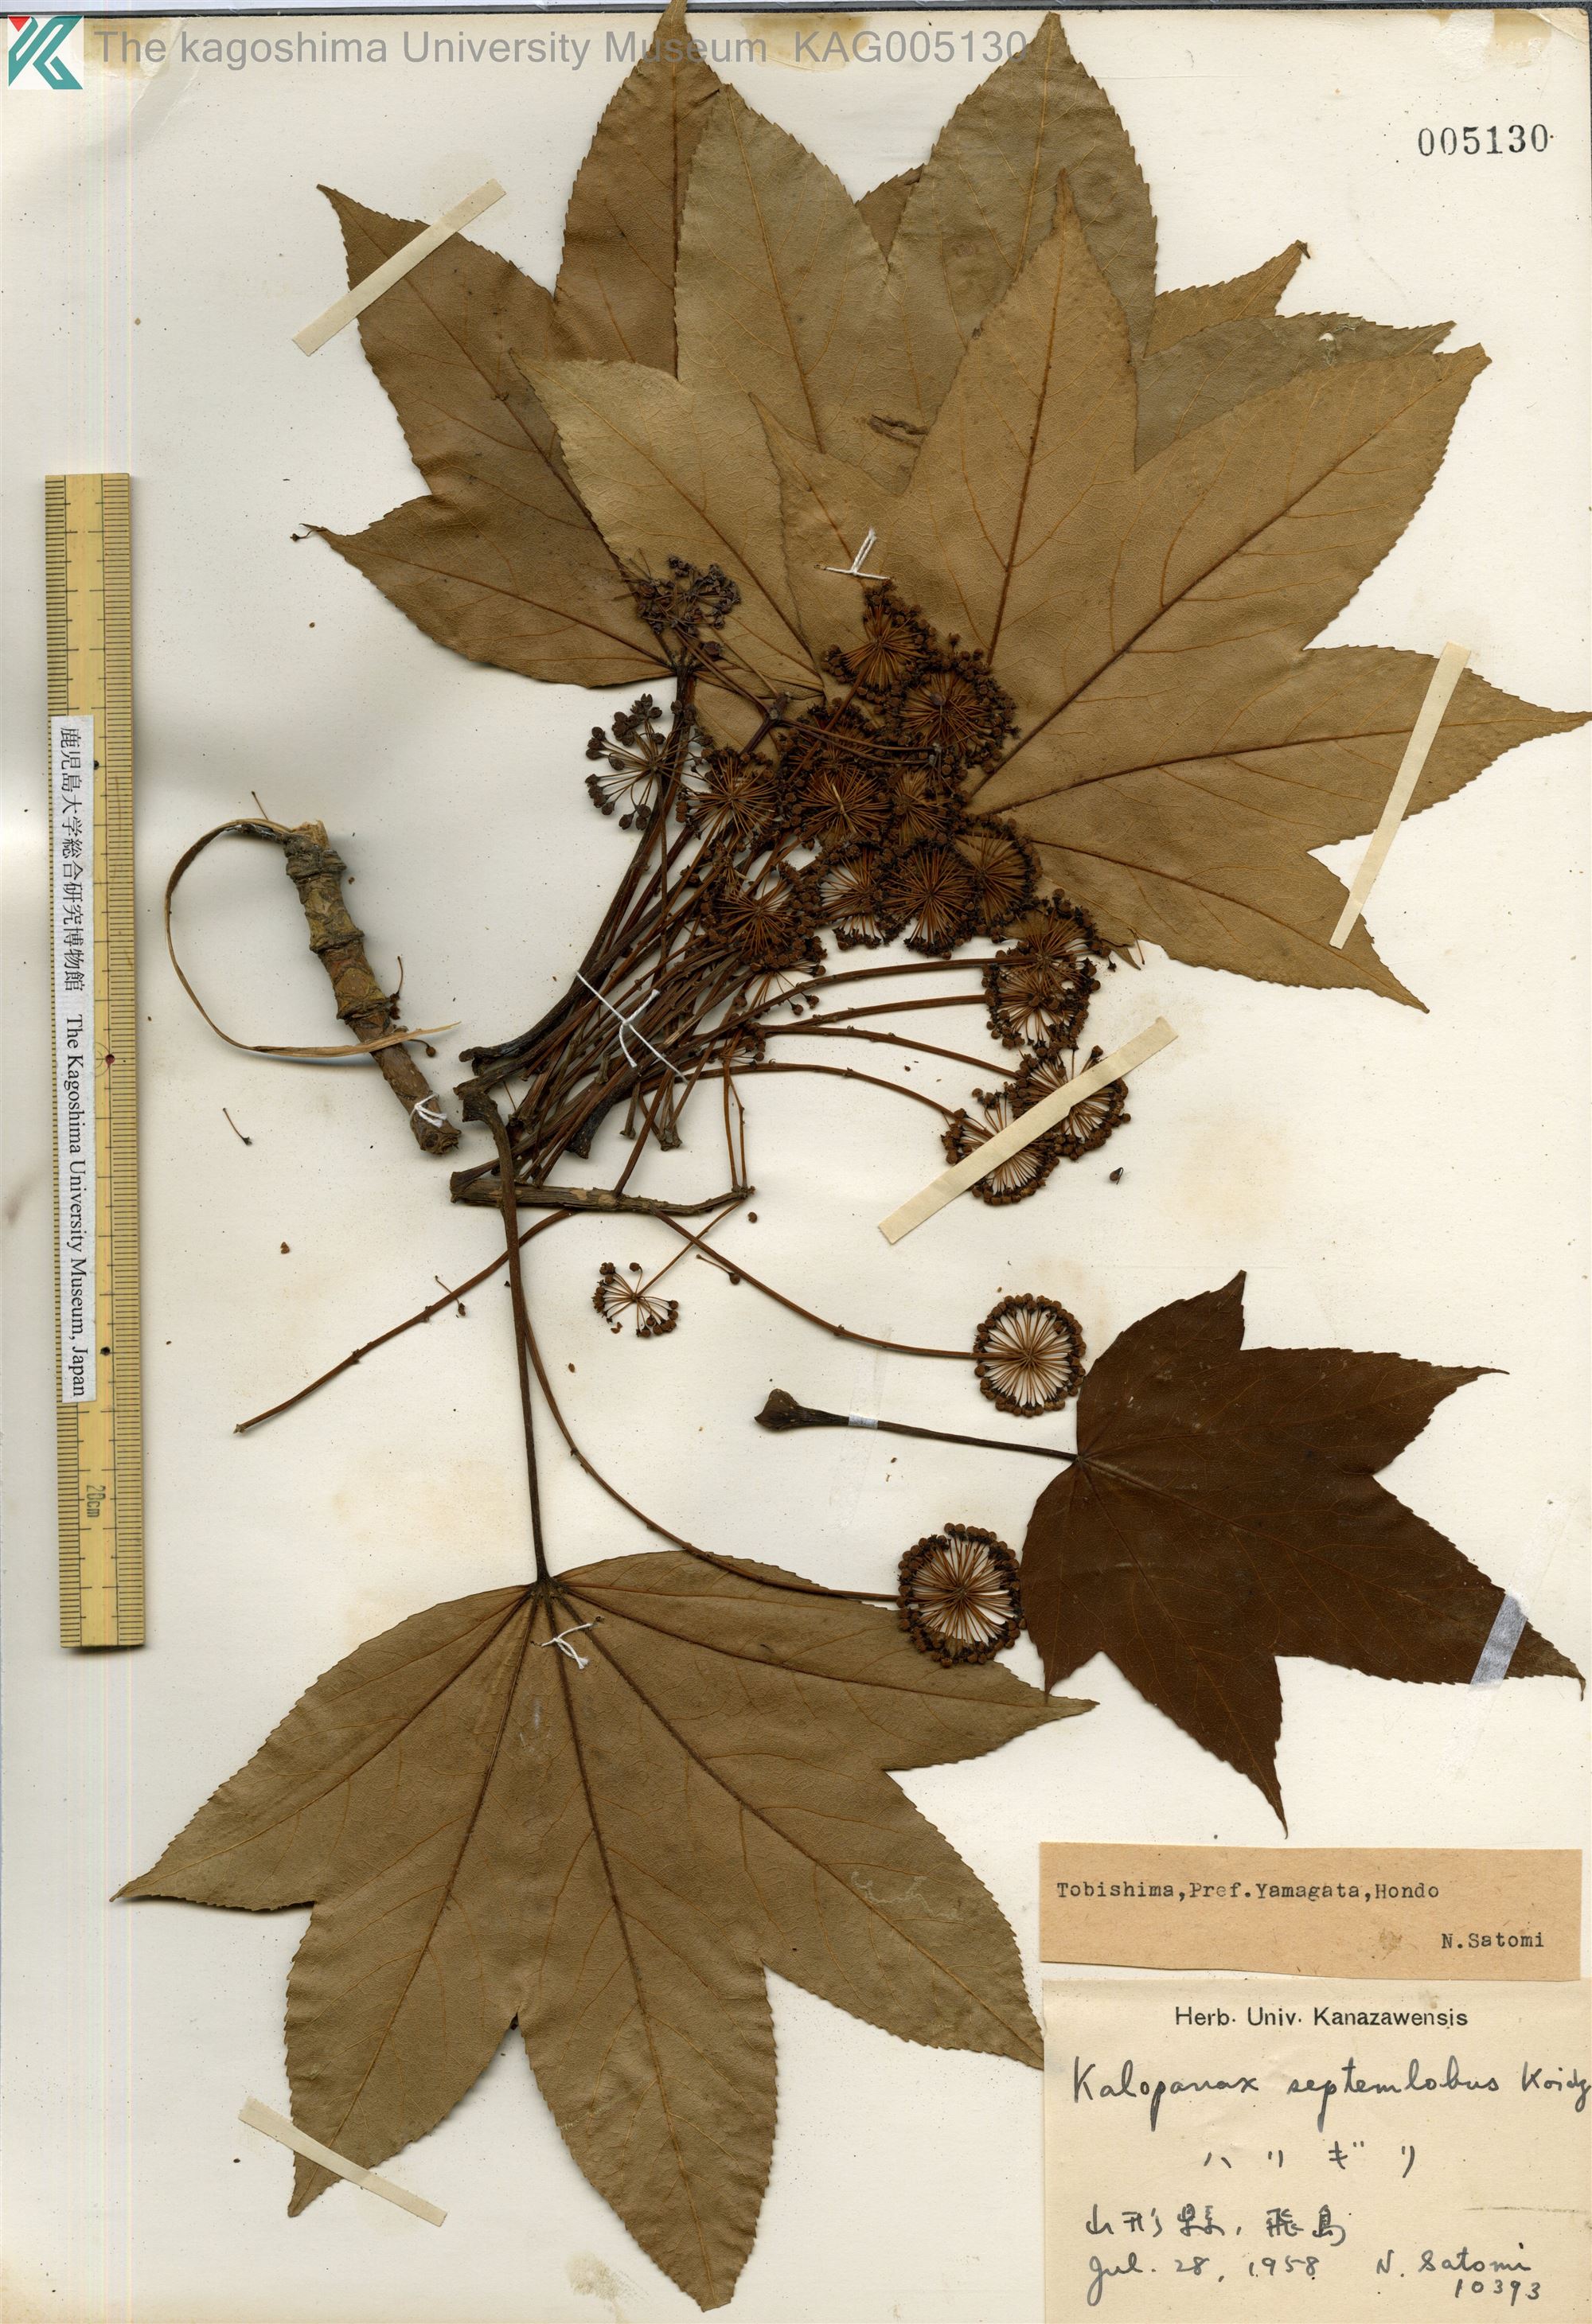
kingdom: Plantae
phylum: Tracheophyta
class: Magnoliopsida
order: Apiales
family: Araliaceae
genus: Kalopanax
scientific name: Kalopanax septemlobus
